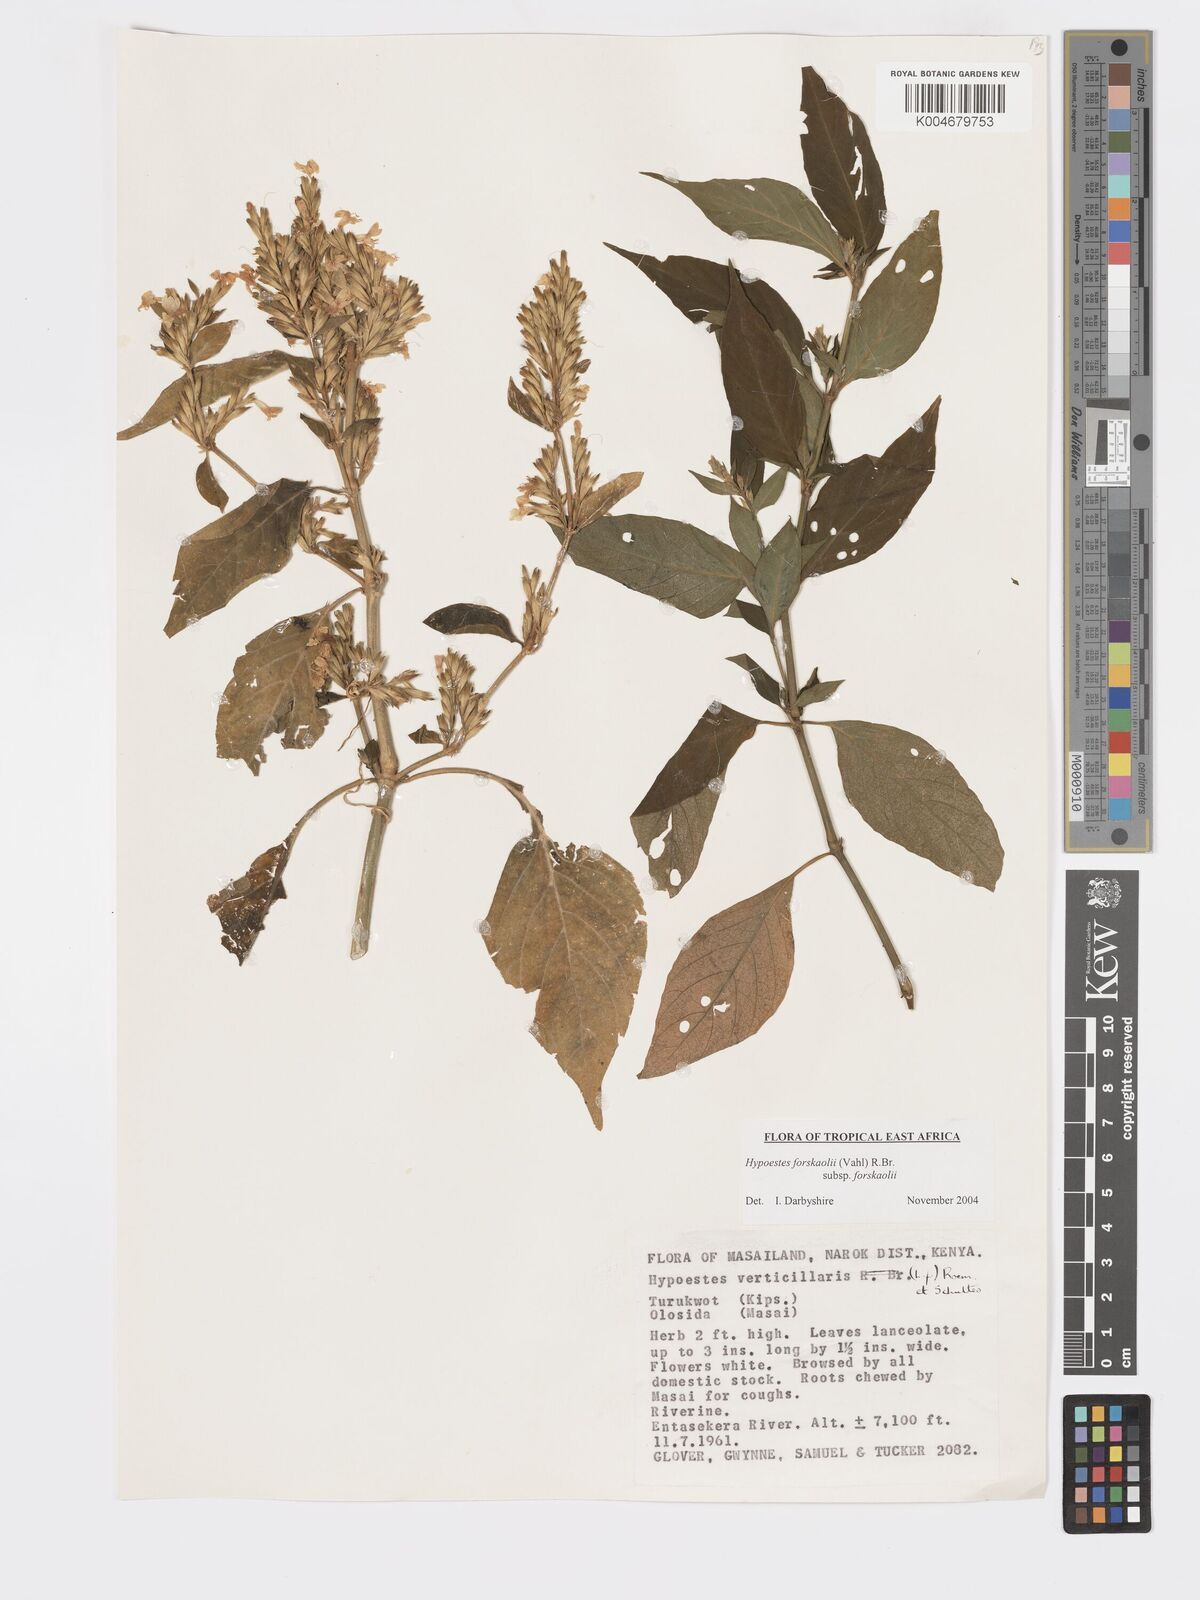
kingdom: Plantae
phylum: Tracheophyta
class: Magnoliopsida
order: Lamiales
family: Acanthaceae
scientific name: Acanthaceae
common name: Acanthaceae
